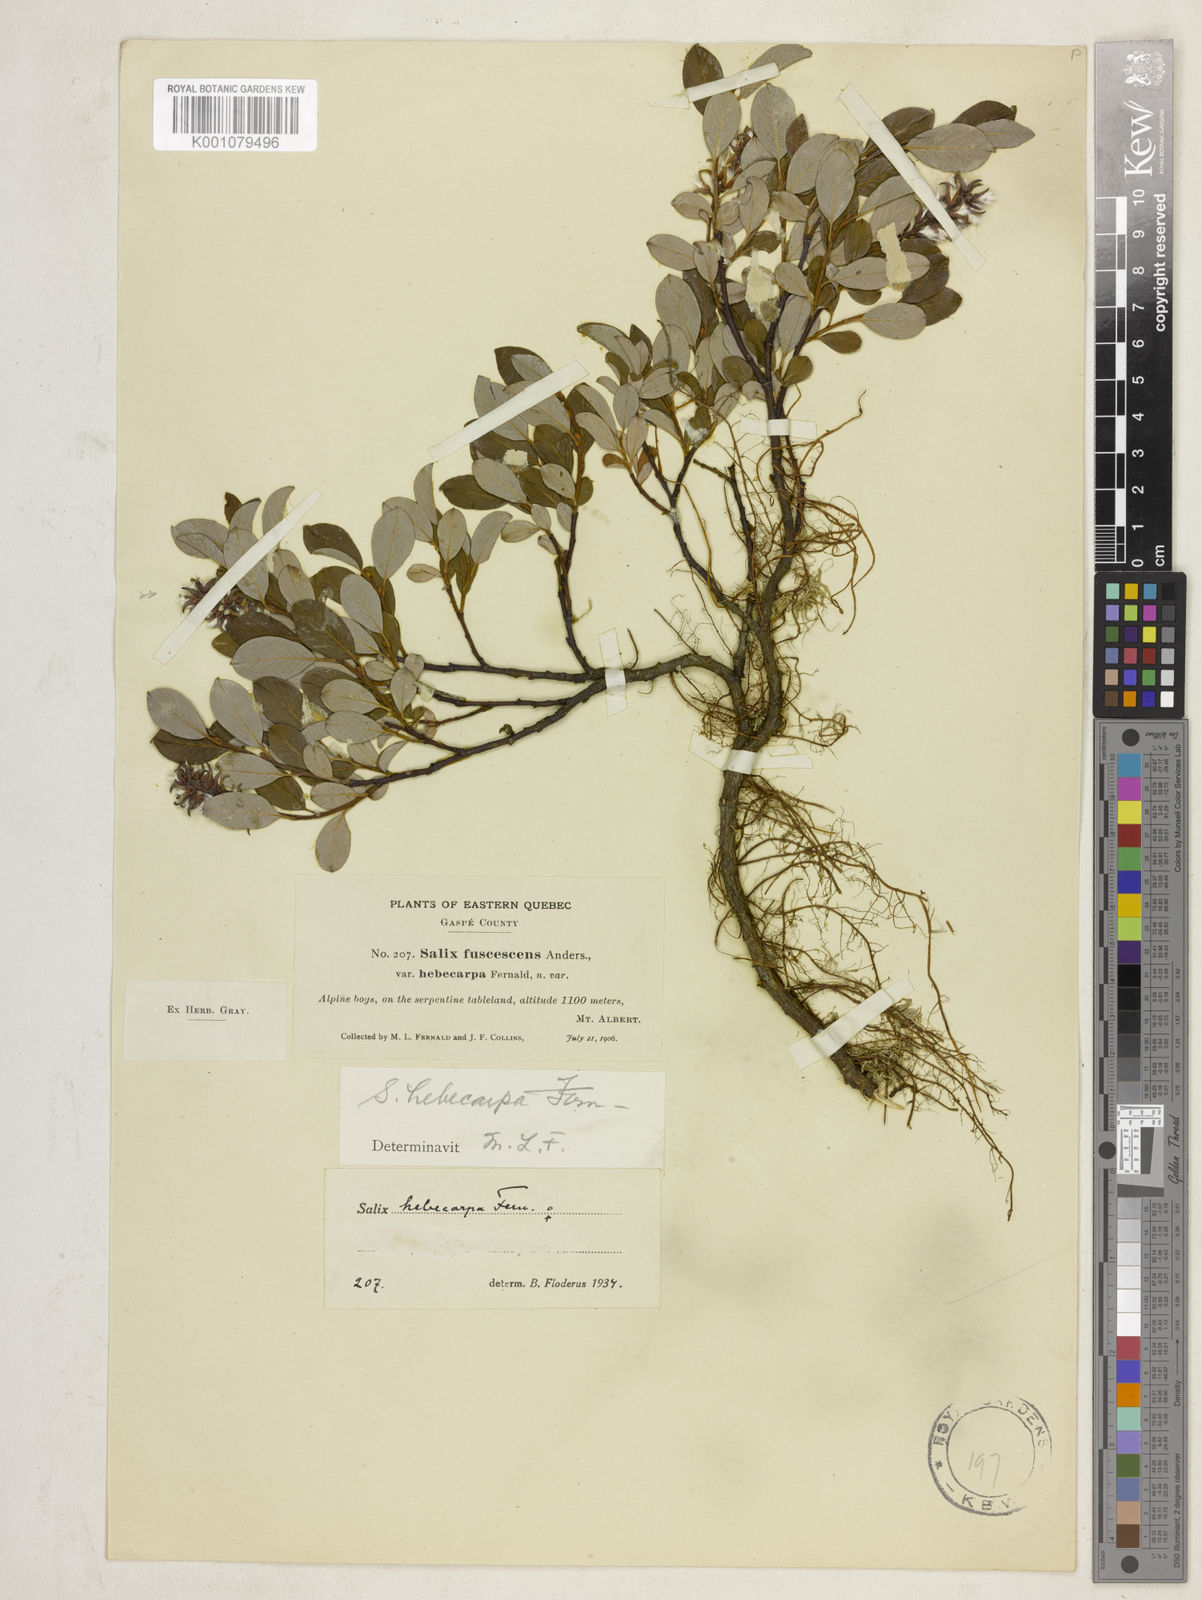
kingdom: Plantae
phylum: Tracheophyta
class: Magnoliopsida
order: Malpighiales
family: Salicaceae
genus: Salix
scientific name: Salix hebecarpa
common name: Mt. albert willow
